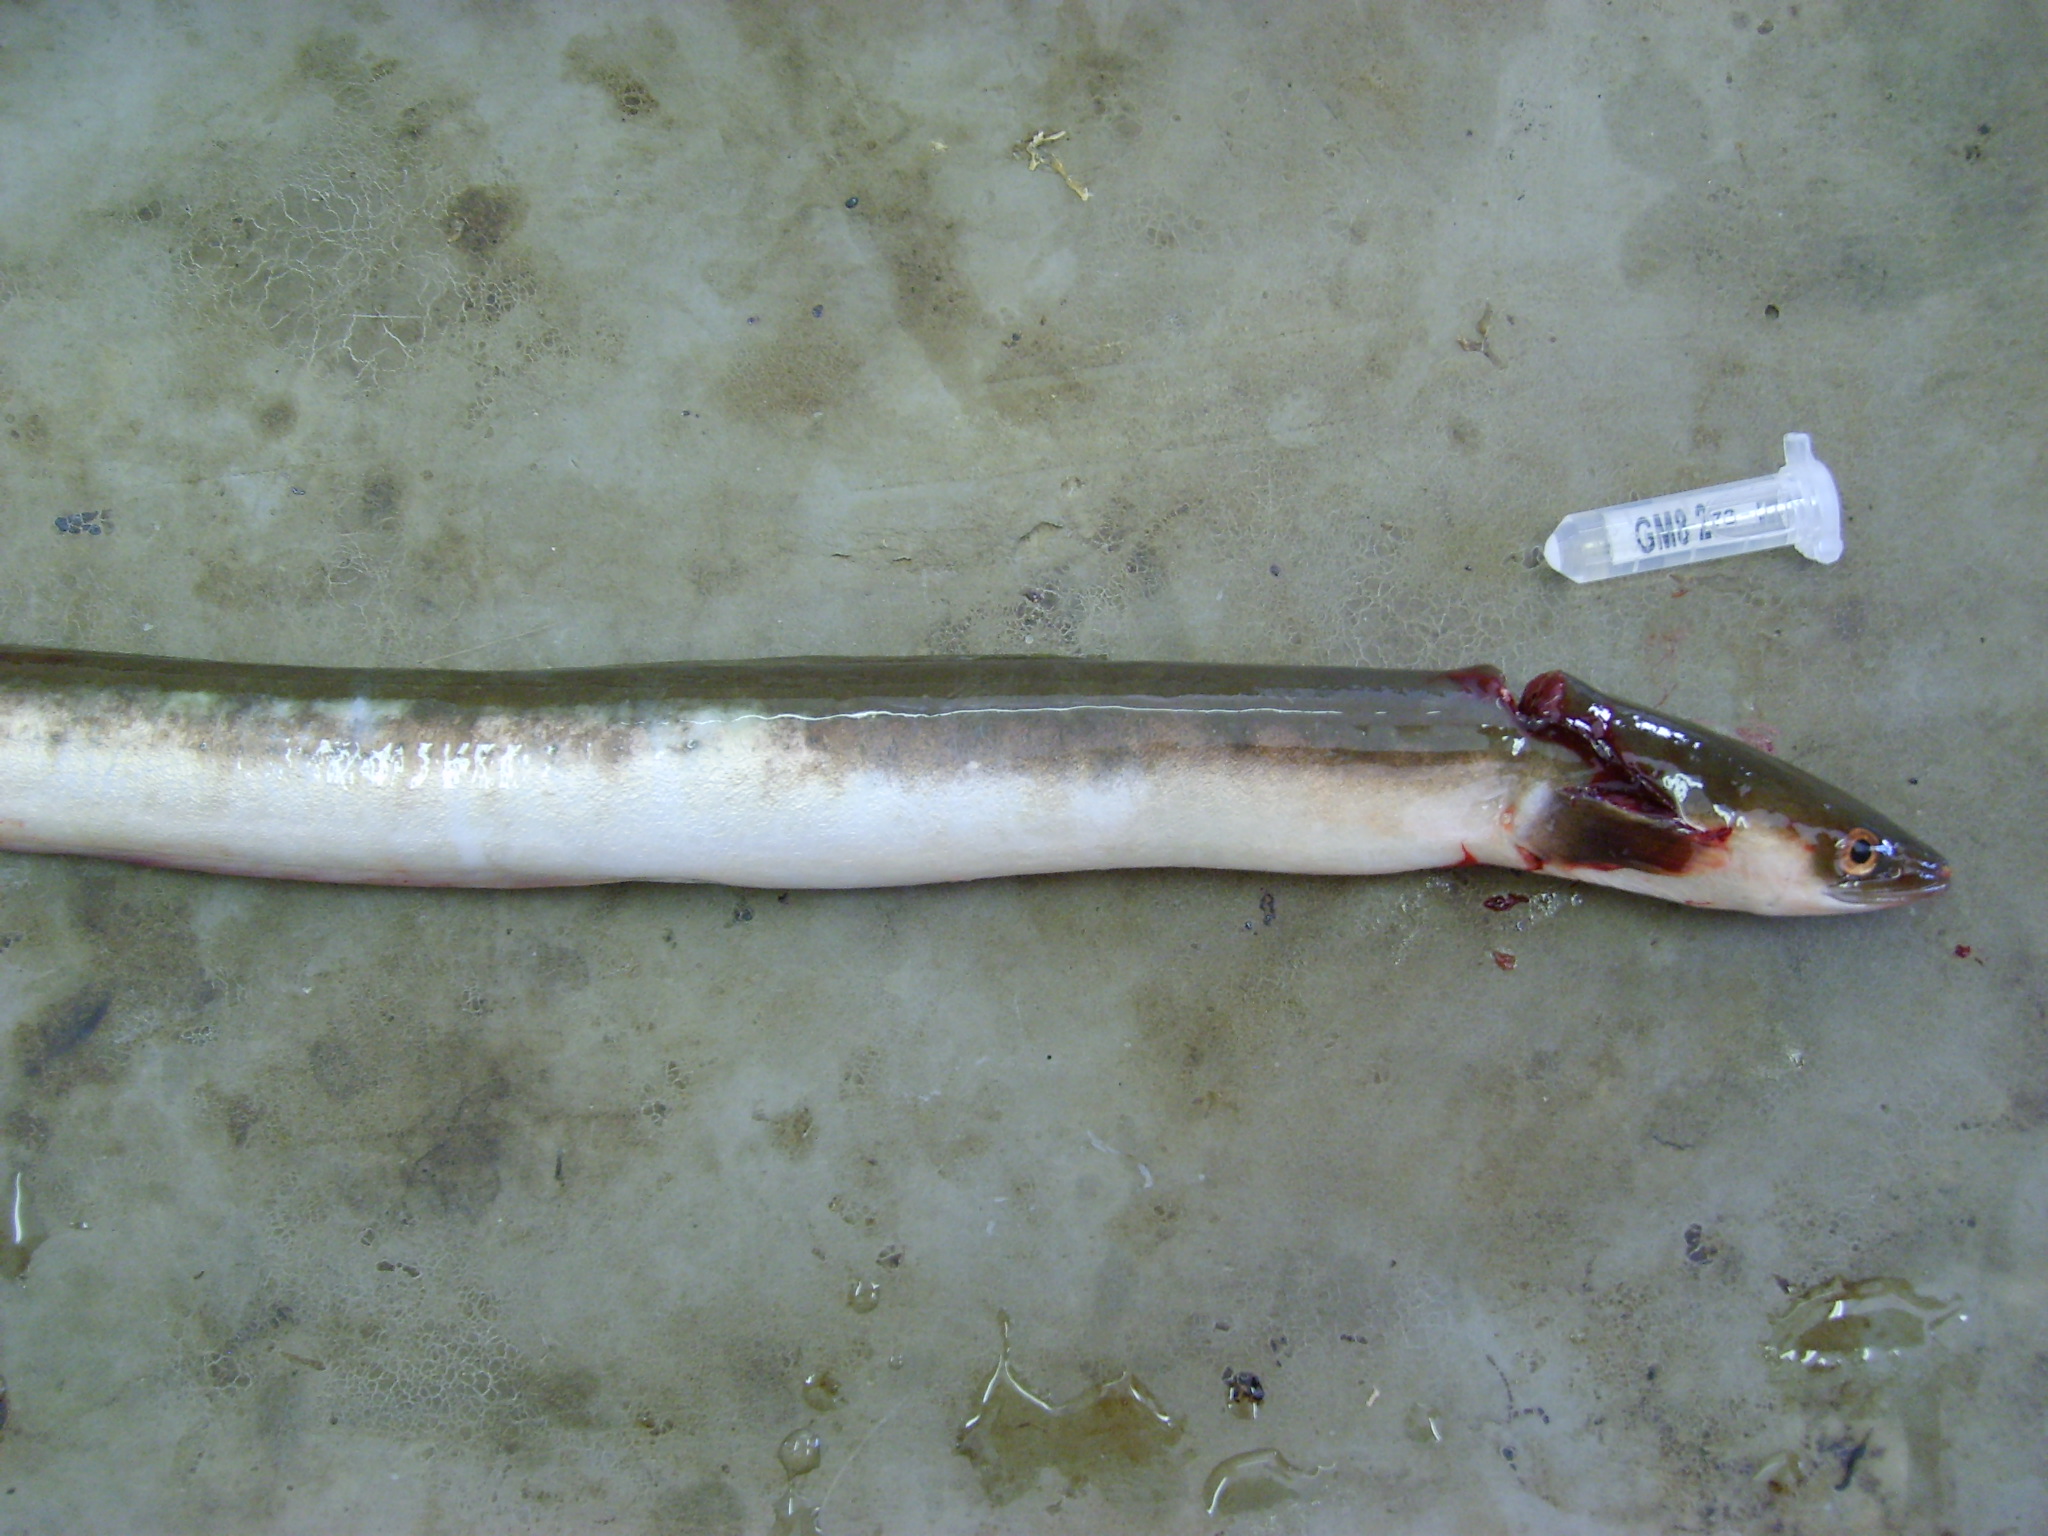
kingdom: Animalia
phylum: Chordata
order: Anguilliformes
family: Anguillidae
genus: Anguilla
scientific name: Anguilla mossambica
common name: African longfin eel
